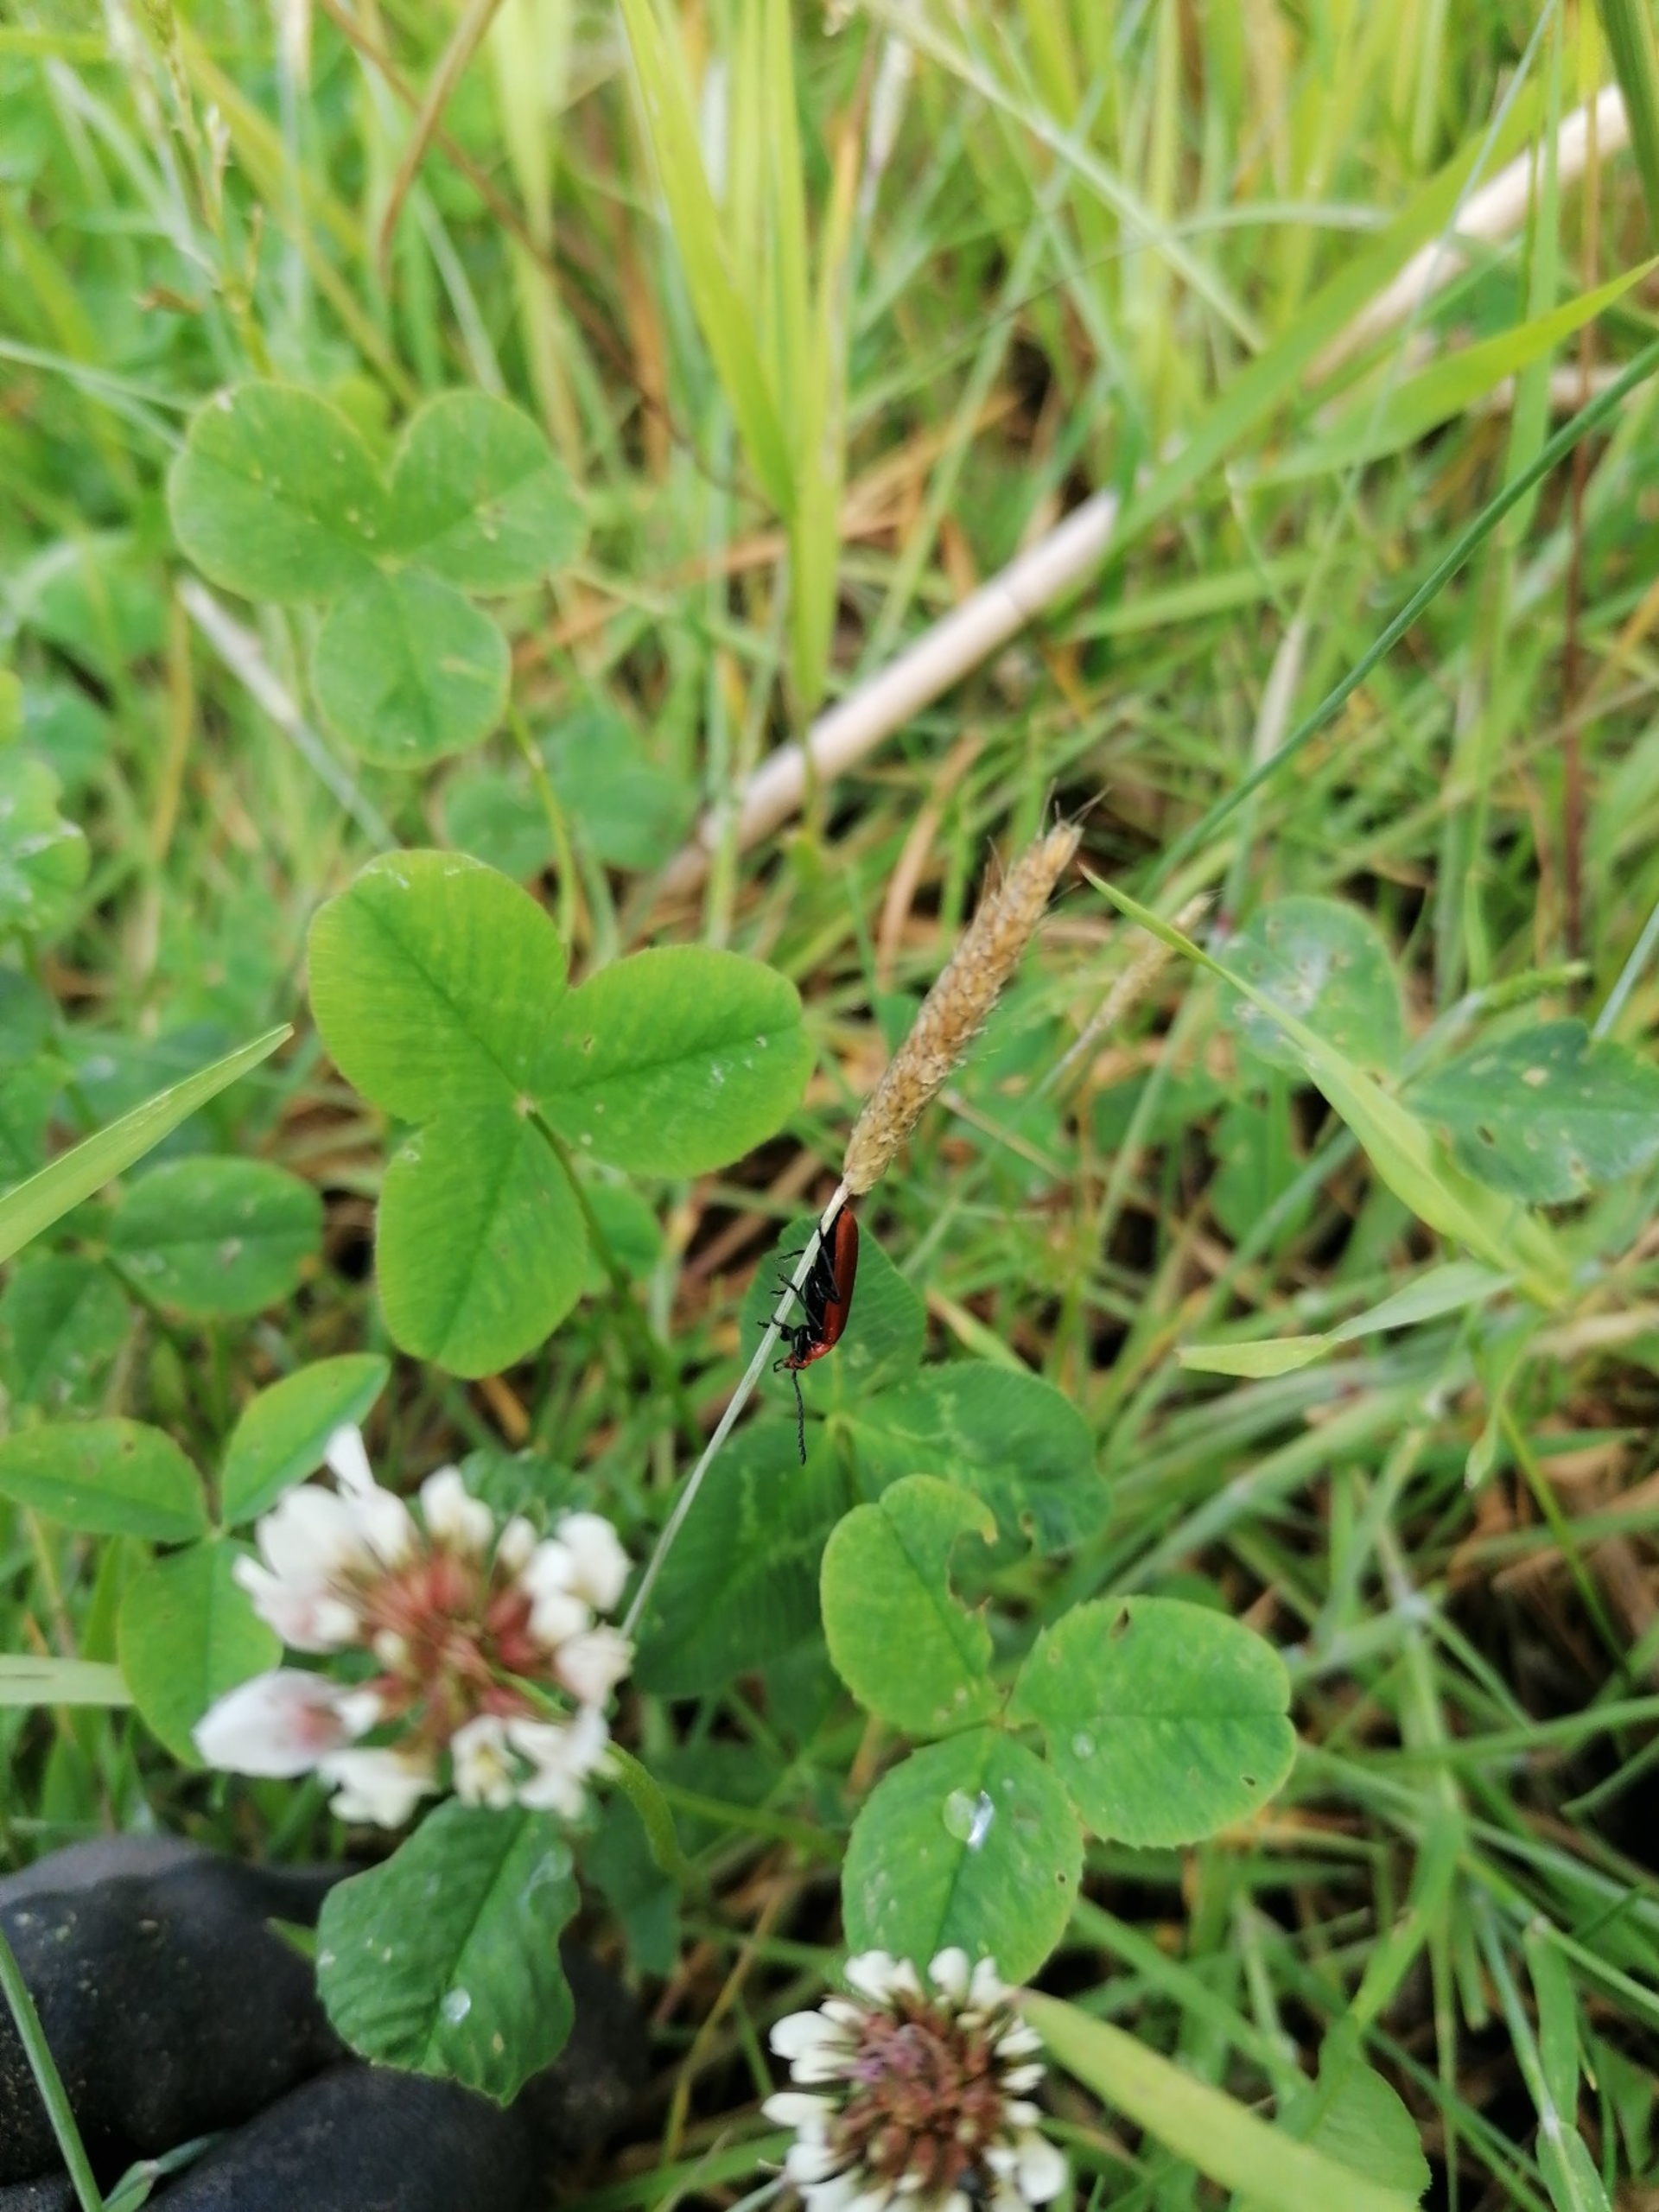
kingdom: Animalia
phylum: Arthropoda
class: Insecta
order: Coleoptera
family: Pyrochroidae
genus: Pyrochroa
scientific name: Pyrochroa serraticornis
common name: Rødhovedet kardinalbille
